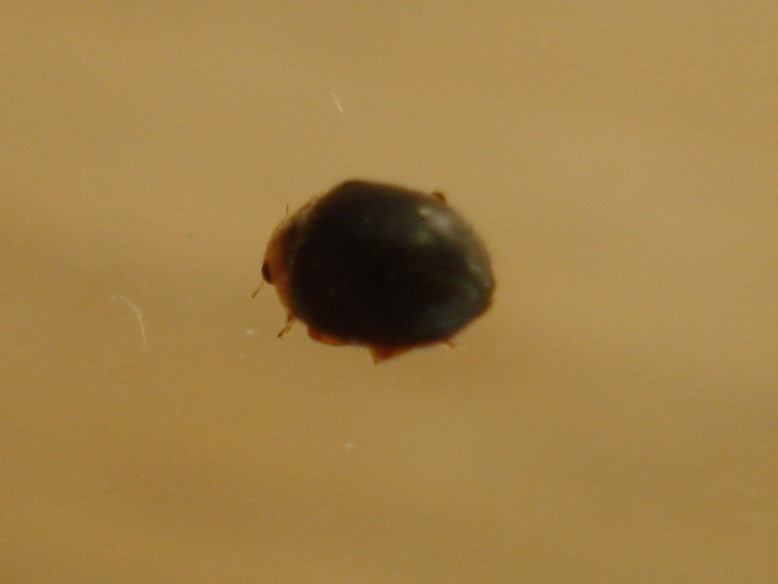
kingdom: Animalia
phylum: Arthropoda
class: Insecta
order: Coleoptera
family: Coccinellidae
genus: Scymnus
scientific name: Scymnus rubromaculatus
